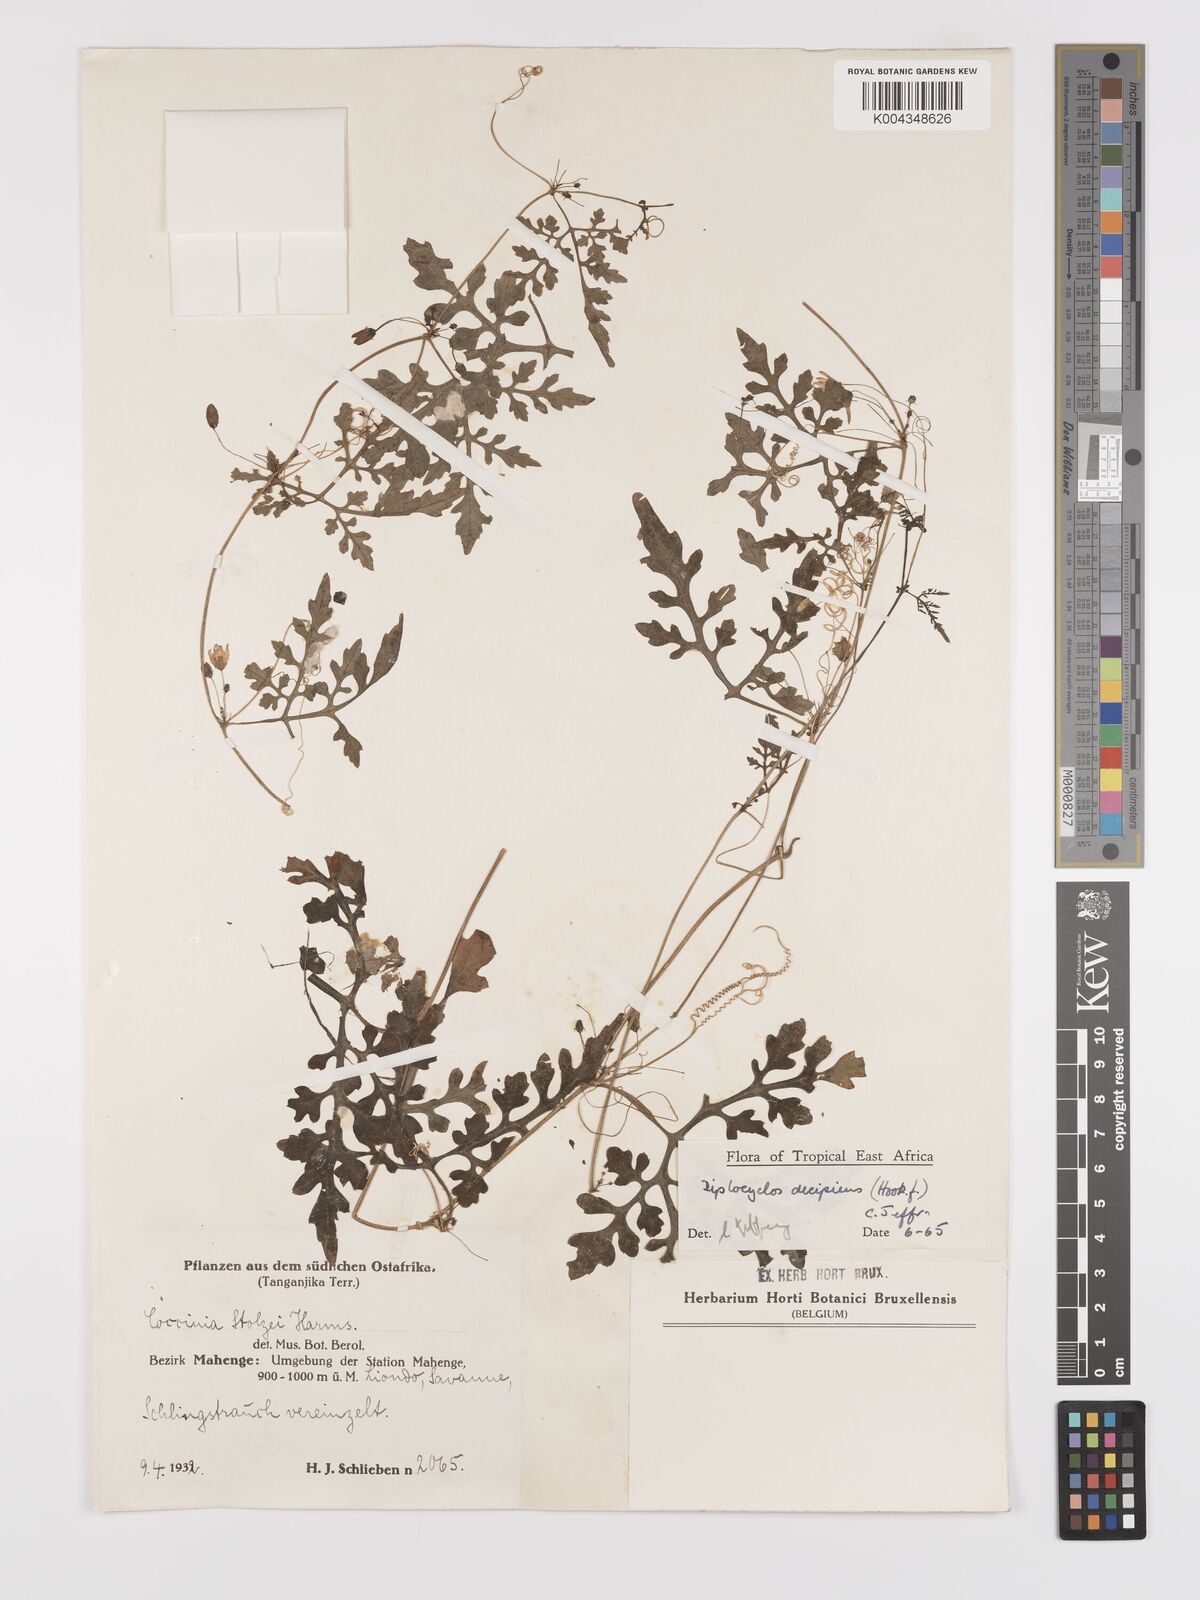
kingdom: Plantae
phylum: Tracheophyta
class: Magnoliopsida
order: Cucurbitales
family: Cucurbitaceae
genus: Diplocyclos
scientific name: Diplocyclos decipiens
